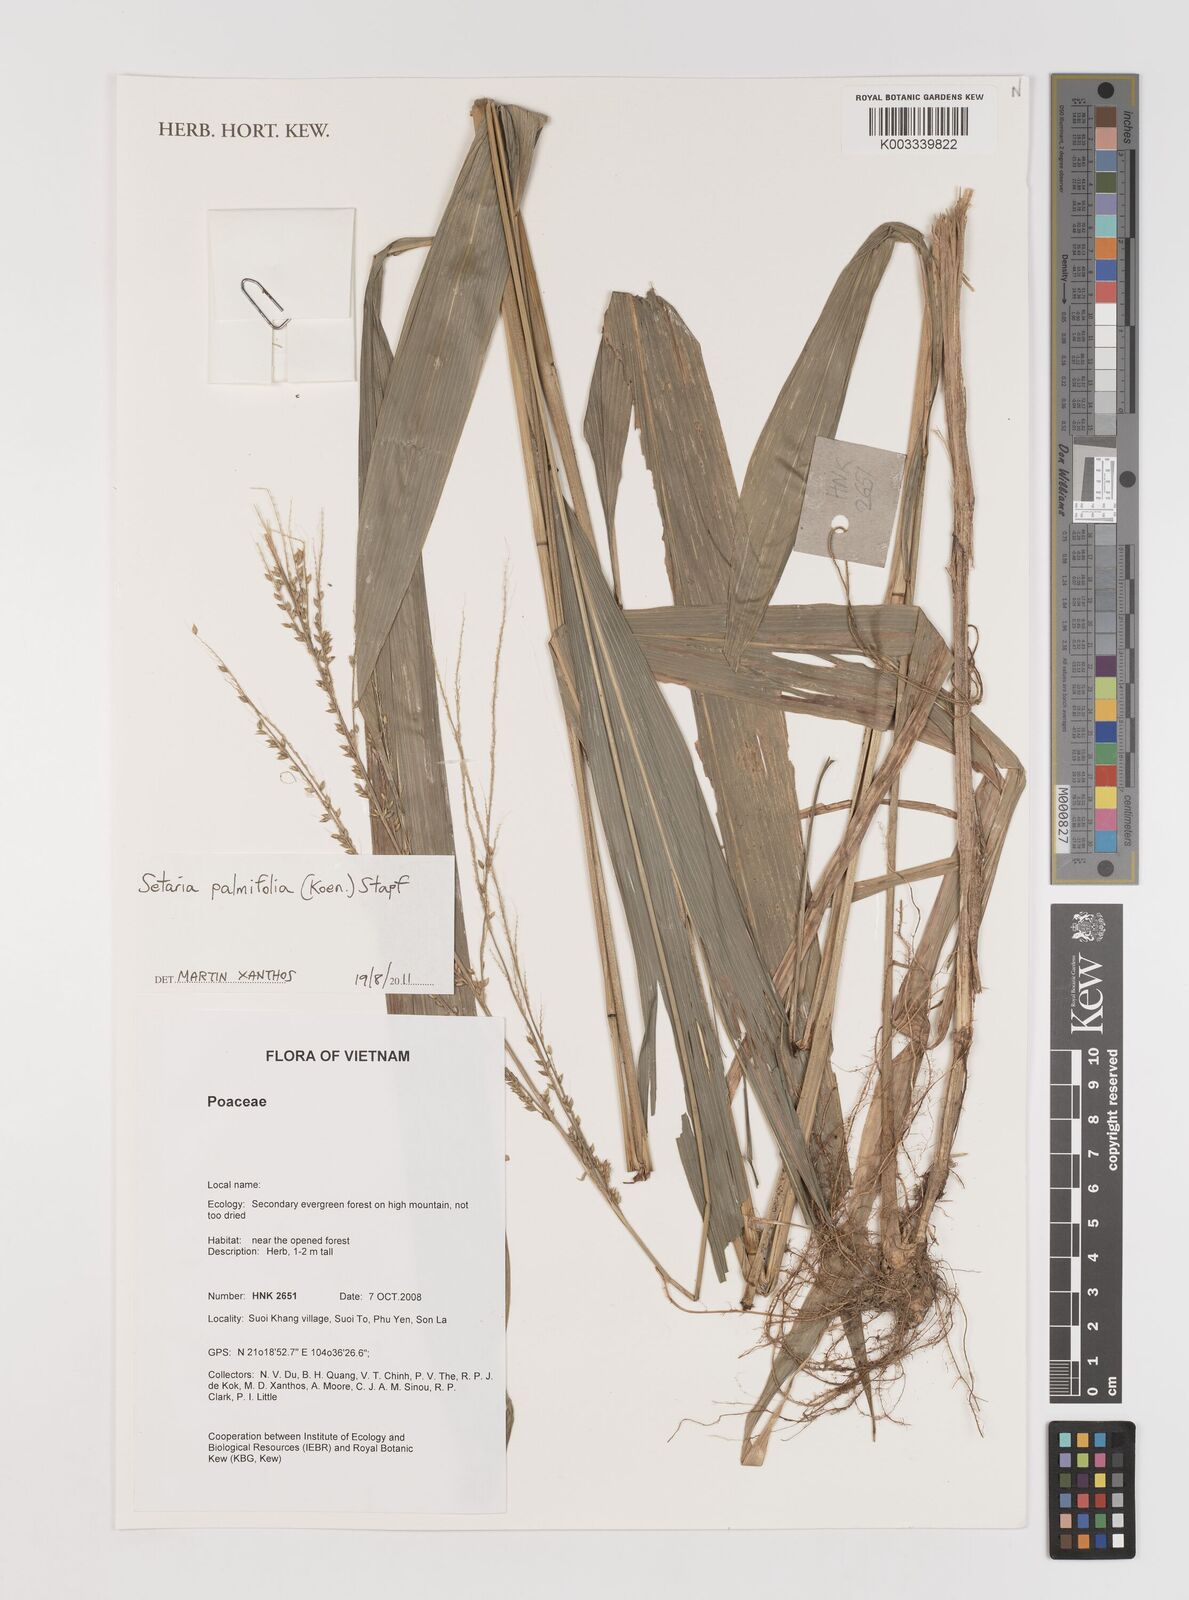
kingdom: Plantae
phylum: Tracheophyta
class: Liliopsida
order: Poales
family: Poaceae
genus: Setaria
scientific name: Setaria palmifolia
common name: Broadleaved bristlegrass
